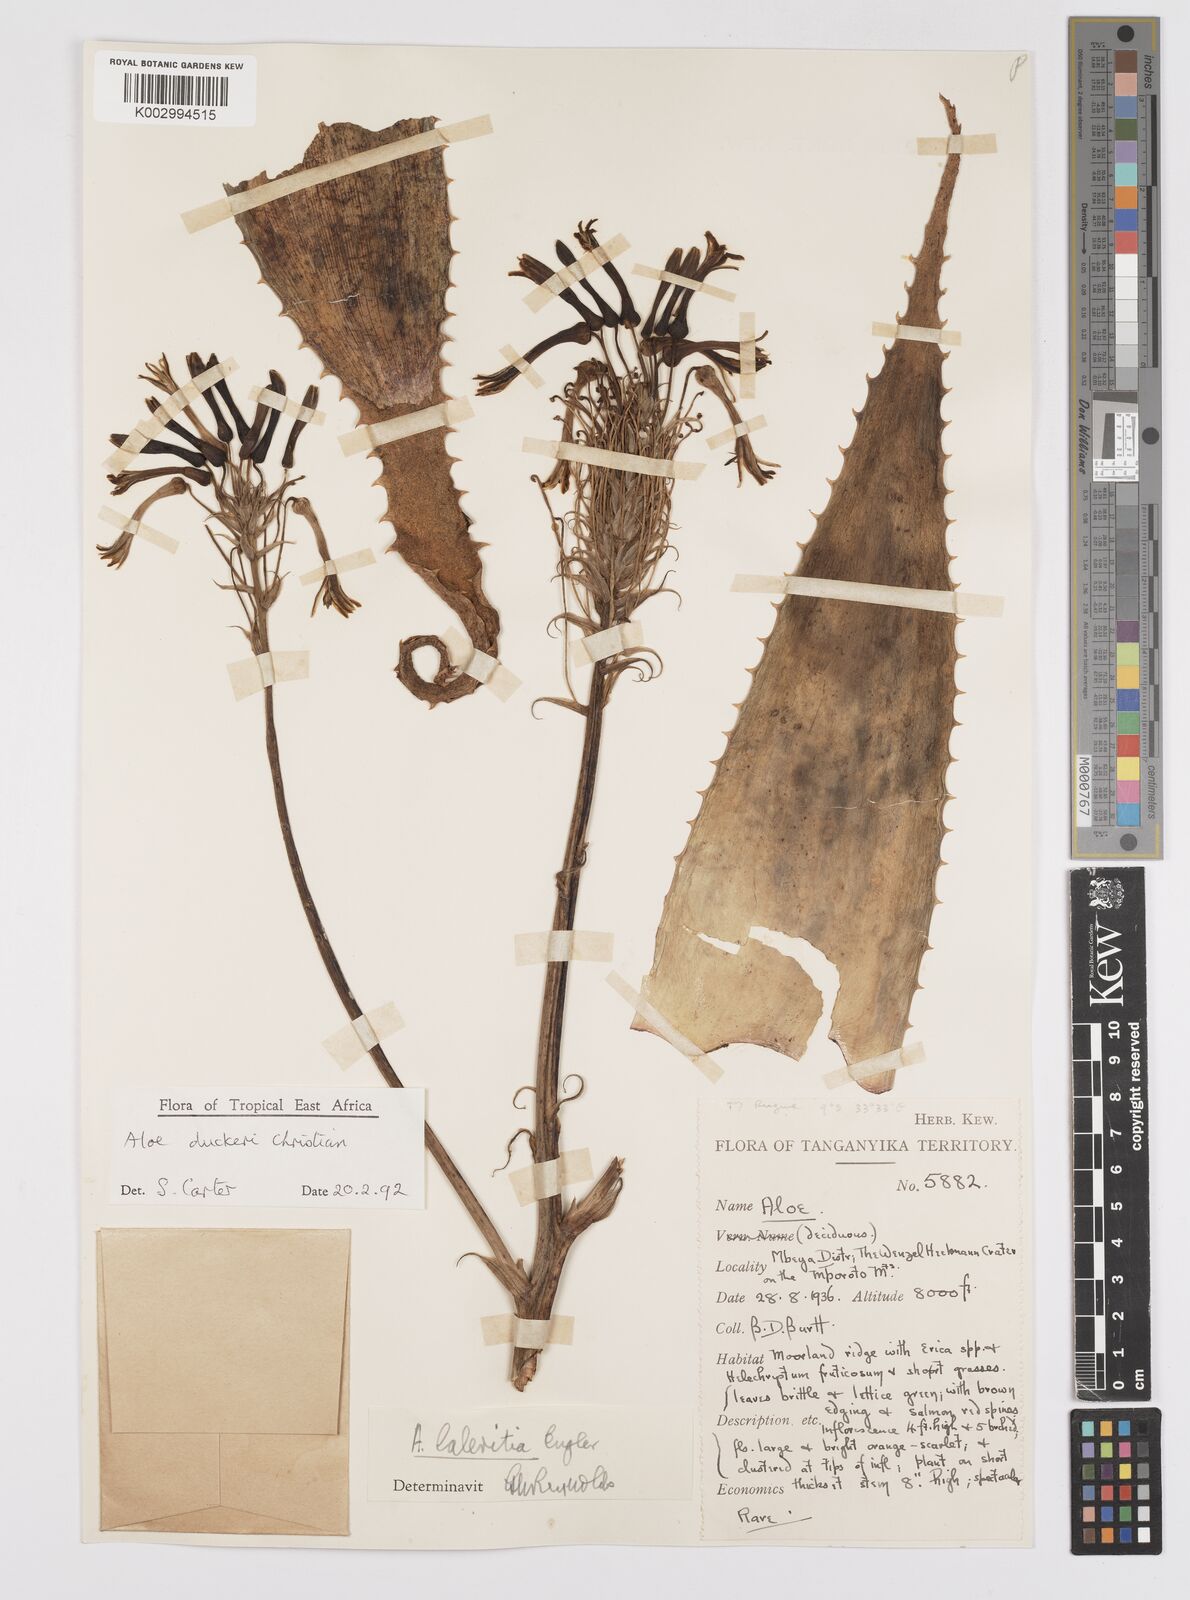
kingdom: Plantae
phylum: Tracheophyta
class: Liliopsida
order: Asparagales
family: Asphodelaceae
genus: Aloe
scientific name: Aloe duckeri
